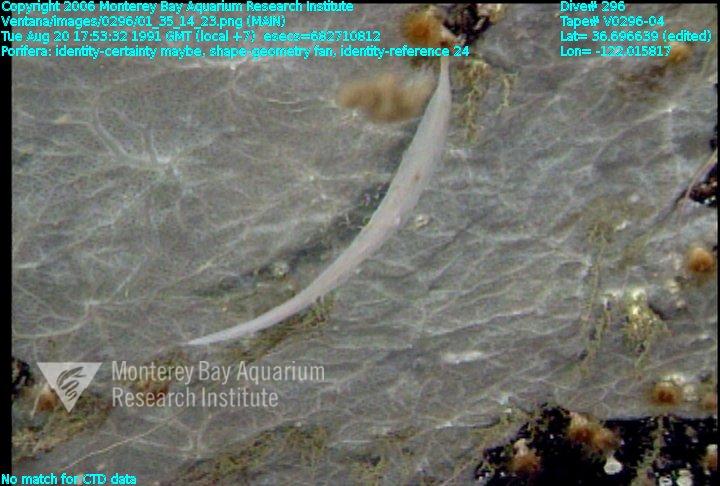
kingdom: Animalia
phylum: Porifera
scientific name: Porifera
